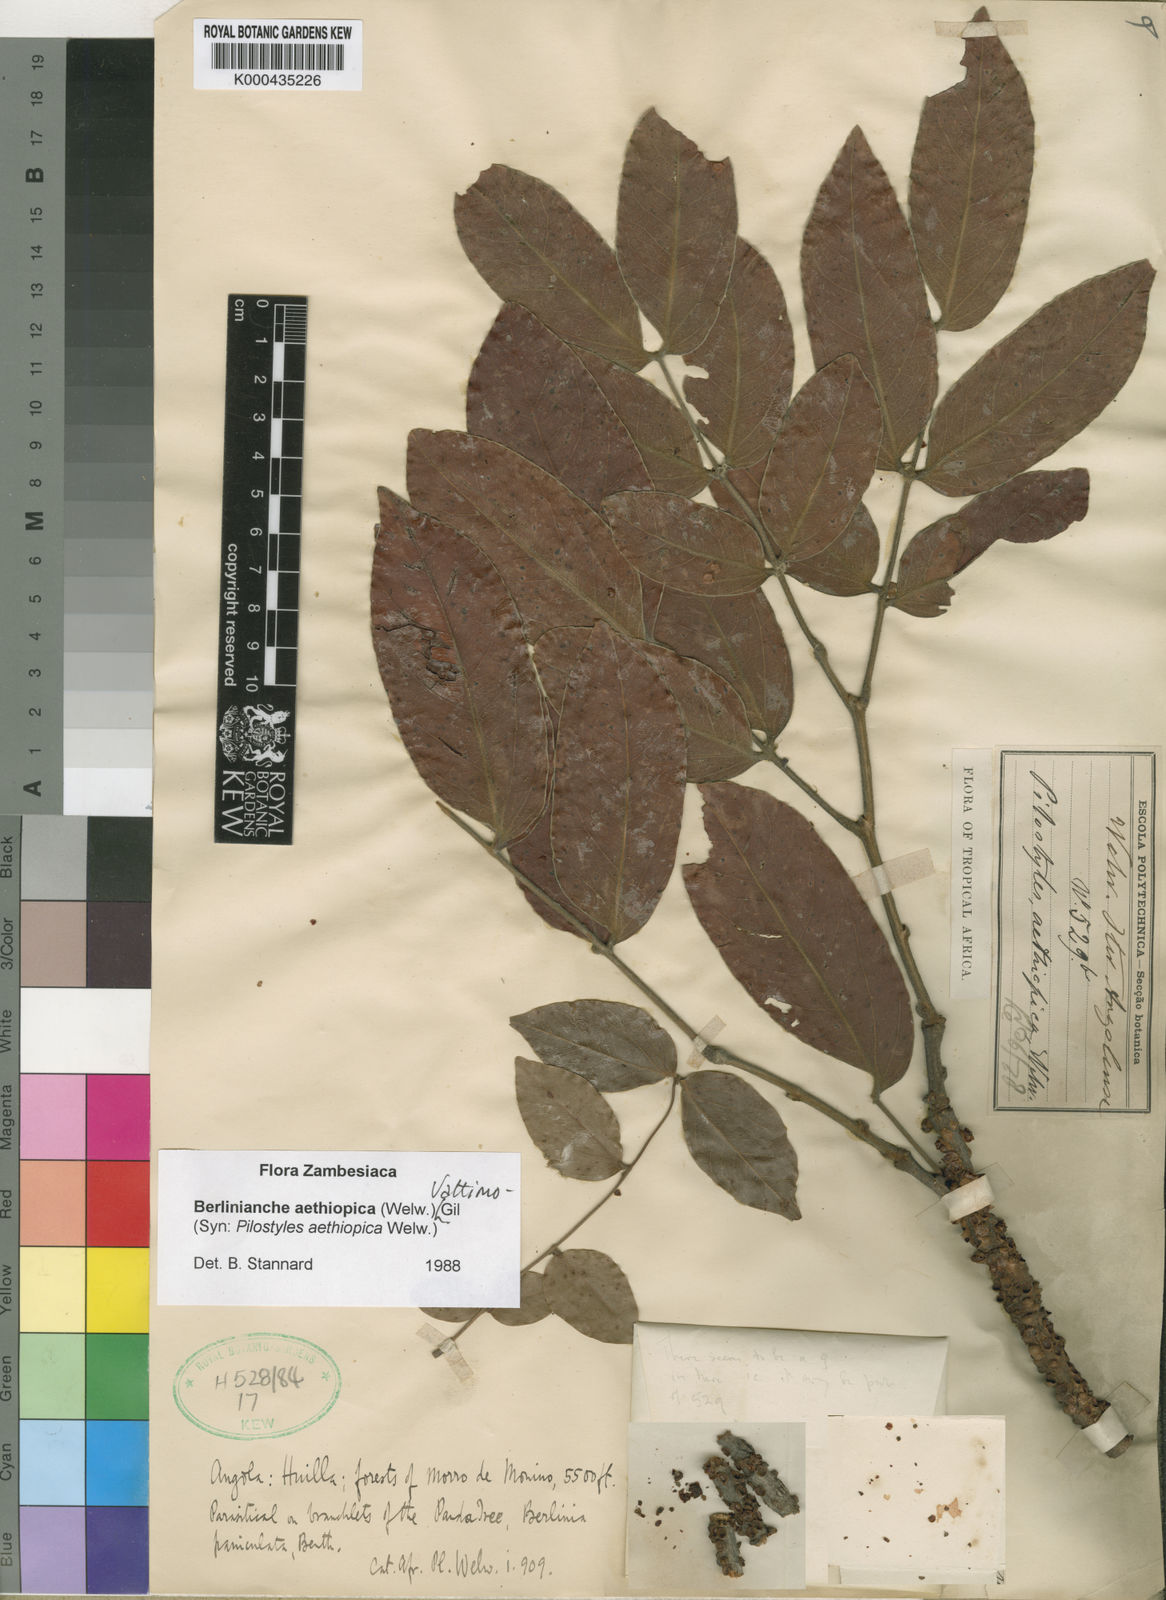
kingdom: Plantae
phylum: Tracheophyta
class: Magnoliopsida
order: Cucurbitales
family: Apodanthaceae
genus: Pilostyles
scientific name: Pilostyles
